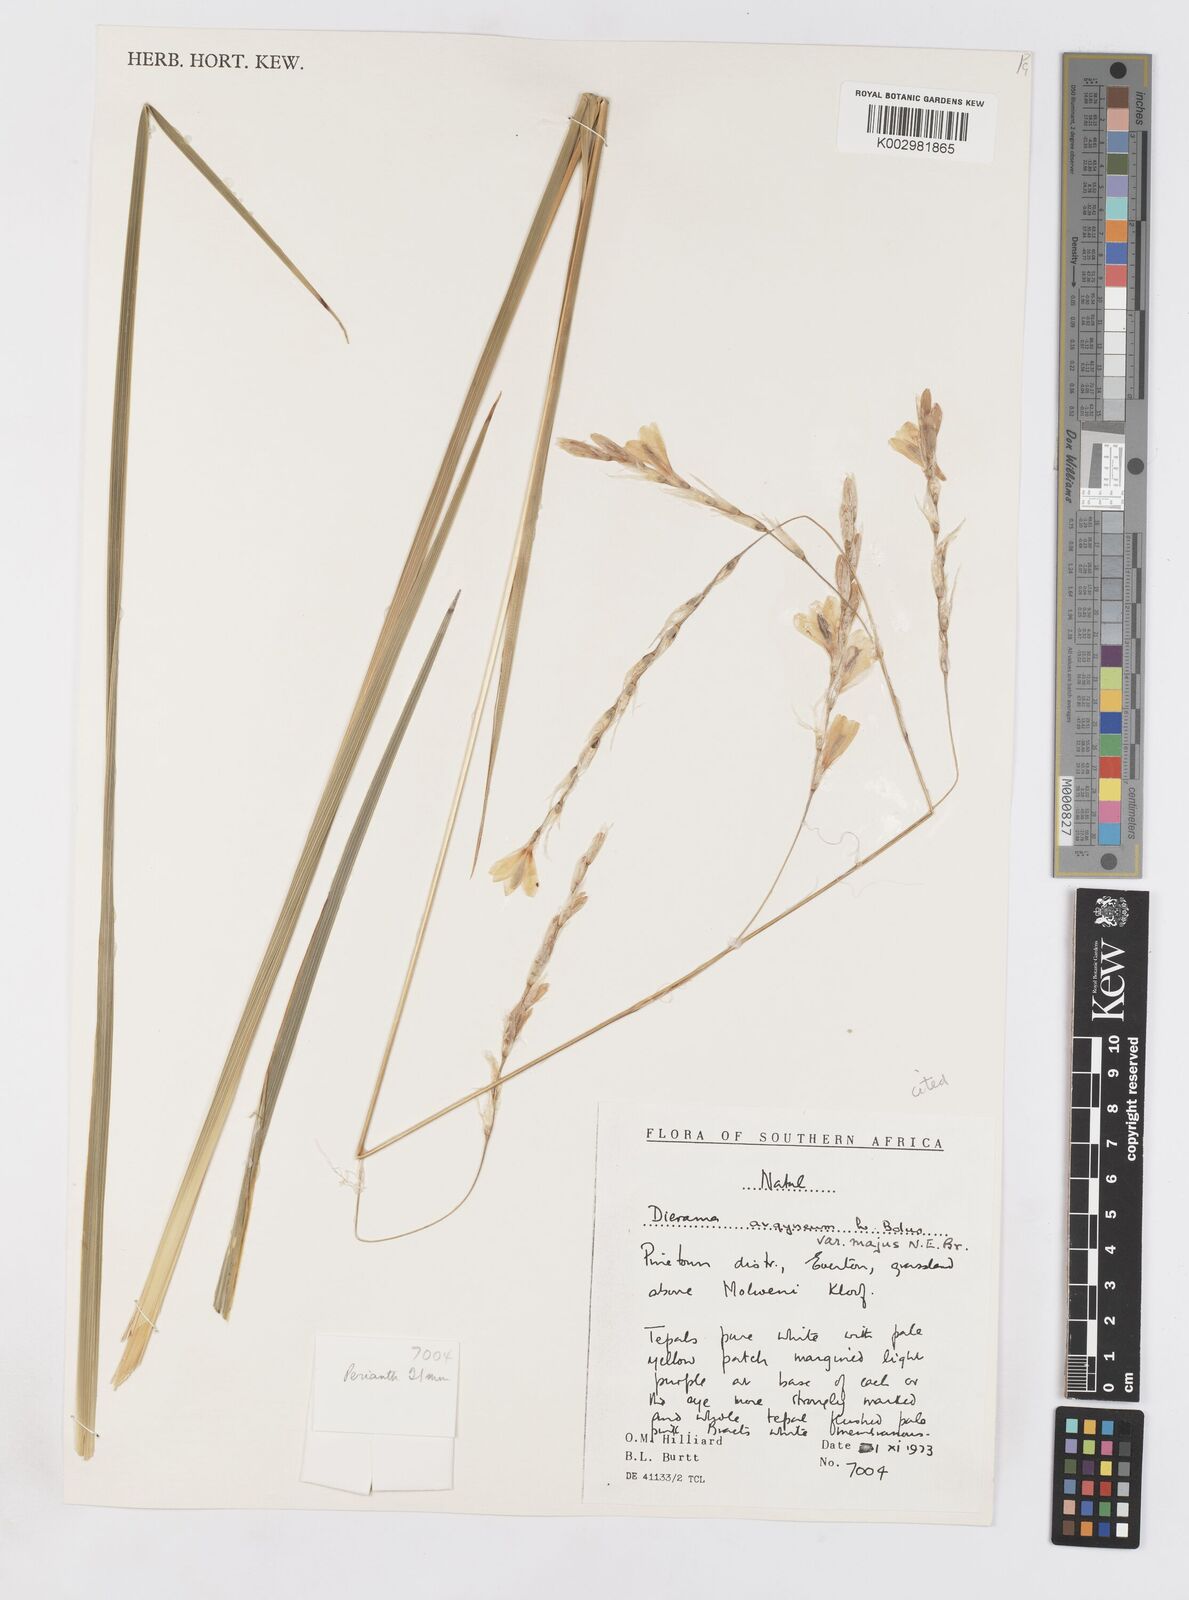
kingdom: Plantae
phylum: Tracheophyta
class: Liliopsida
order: Asparagales
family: Iridaceae
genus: Dierama
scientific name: Dierama argyreum
